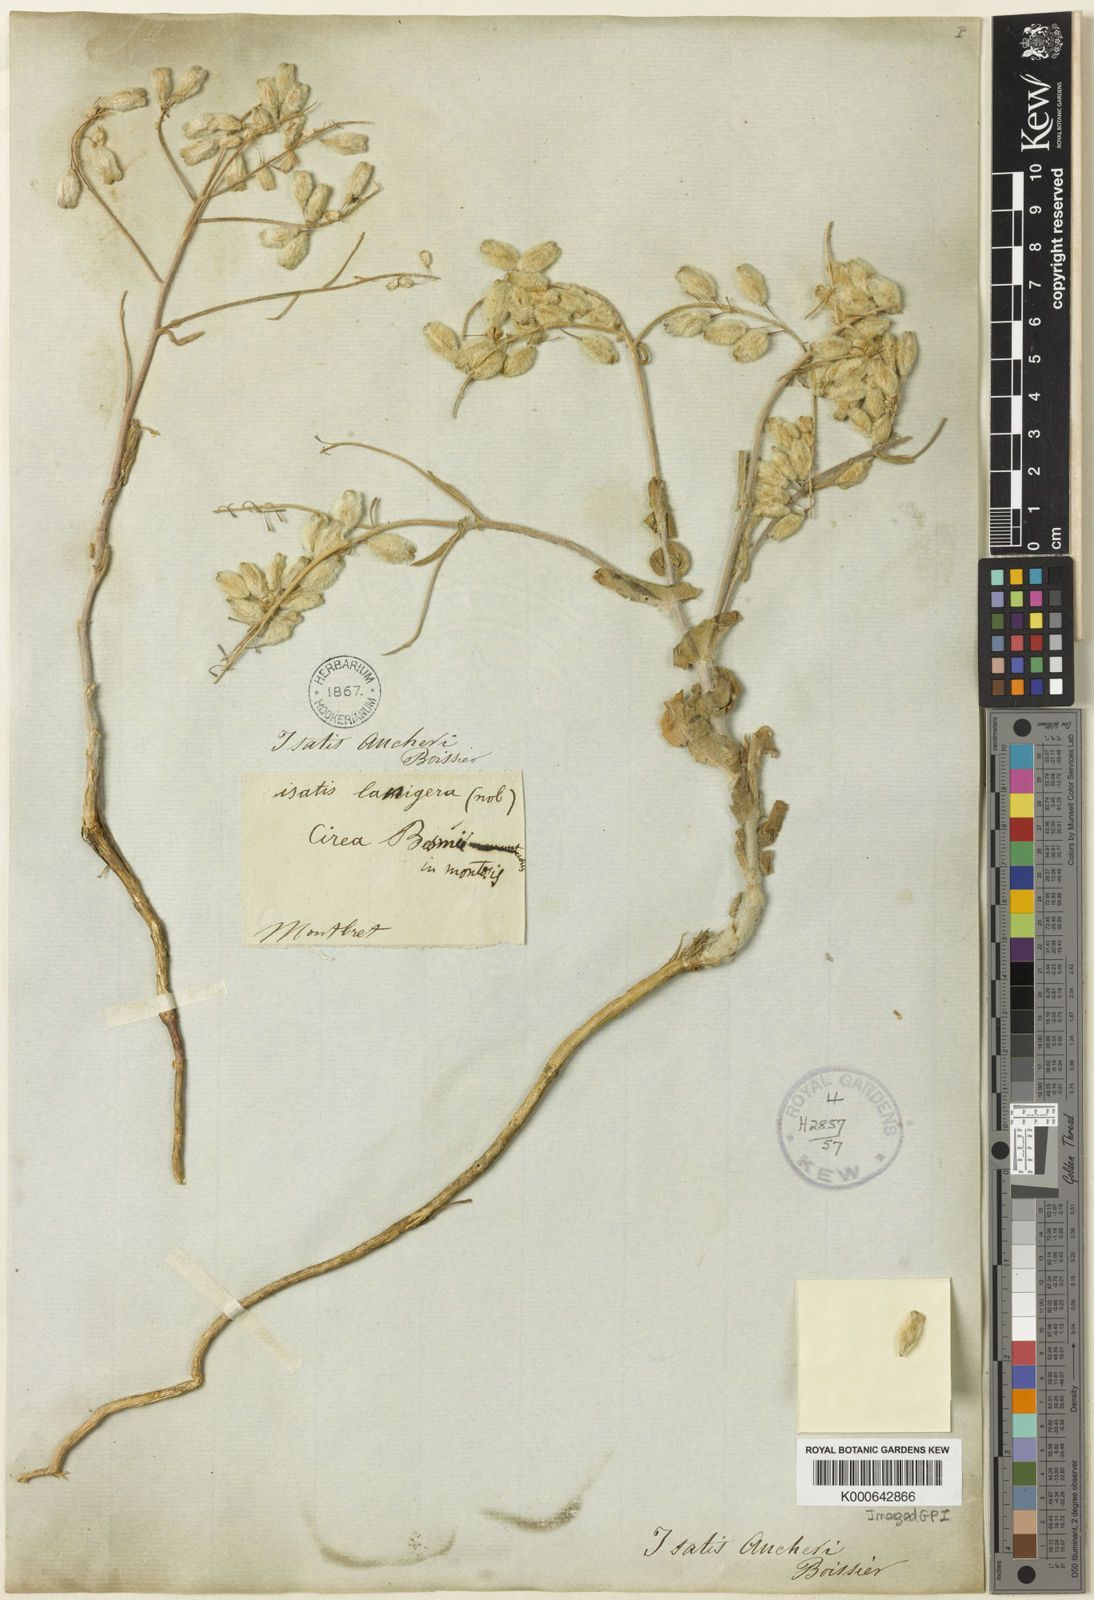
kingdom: Plantae
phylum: Tracheophyta
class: Magnoliopsida
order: Brassicales
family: Brassicaceae
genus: Isatis
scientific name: Isatis aucheri
